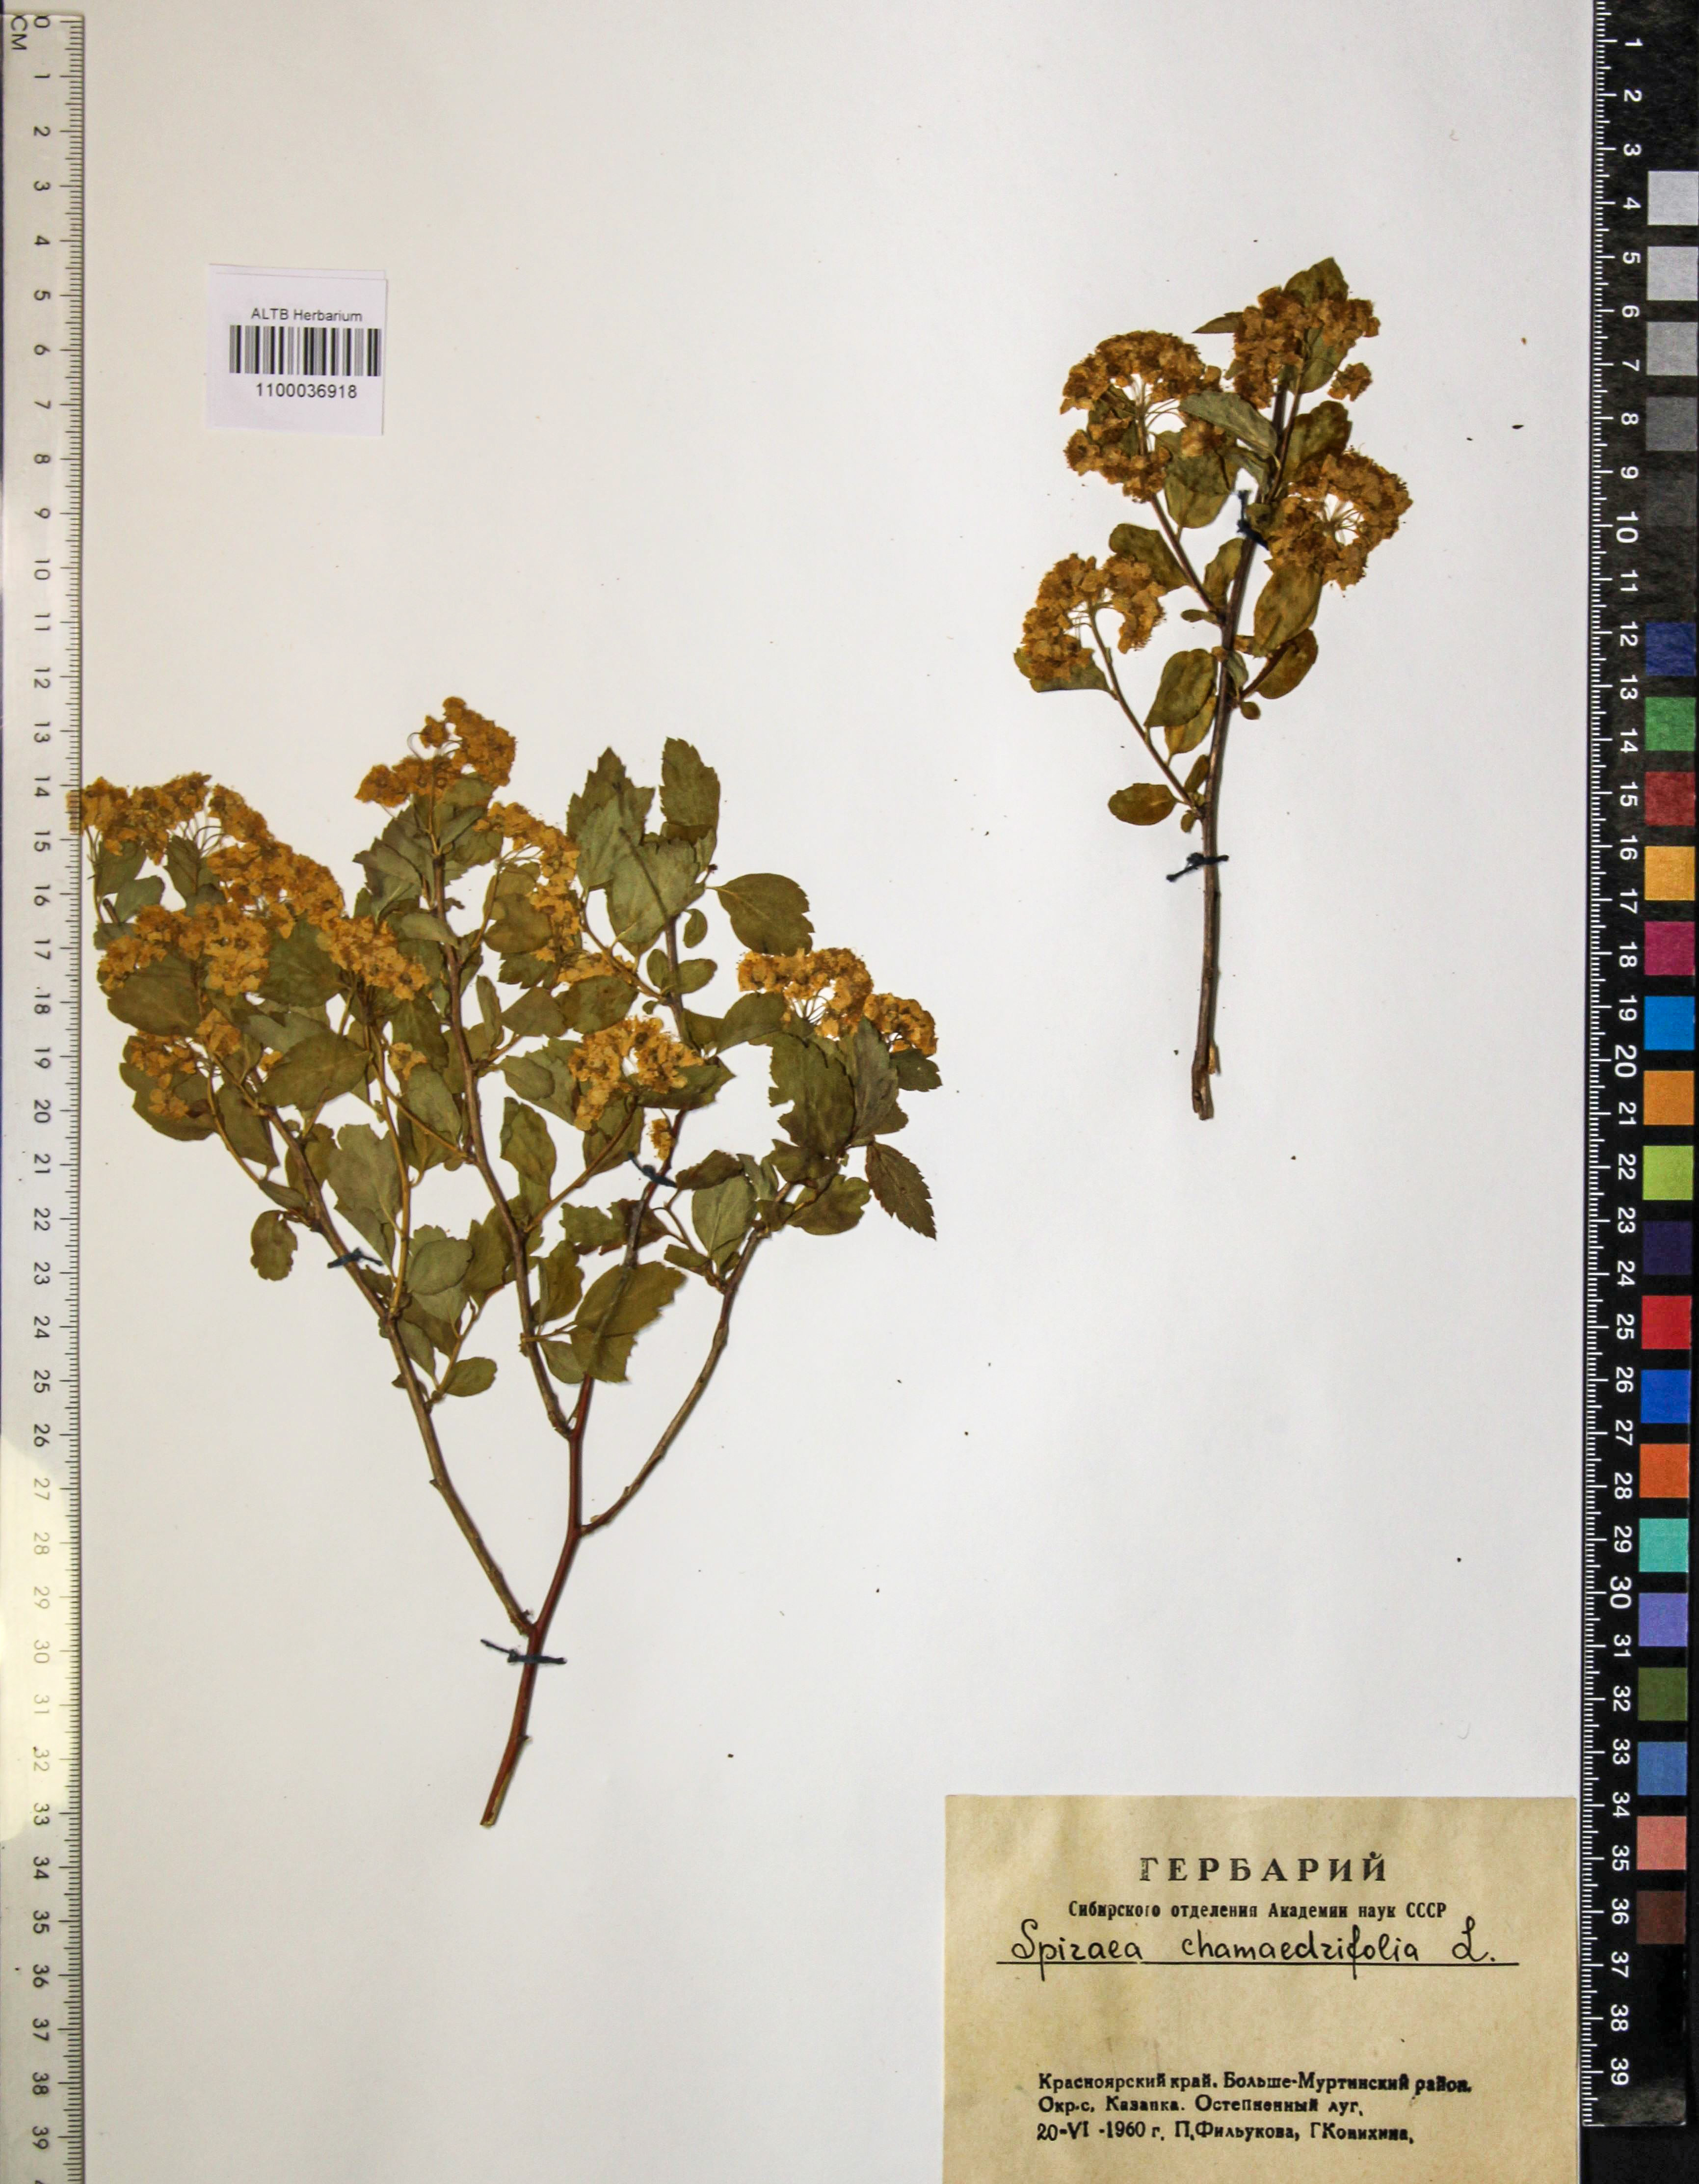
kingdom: Plantae
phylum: Tracheophyta
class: Magnoliopsida
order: Rosales
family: Rosaceae
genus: Spiraea
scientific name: Spiraea chamaedryfolia
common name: Elm-leaved spiraea
